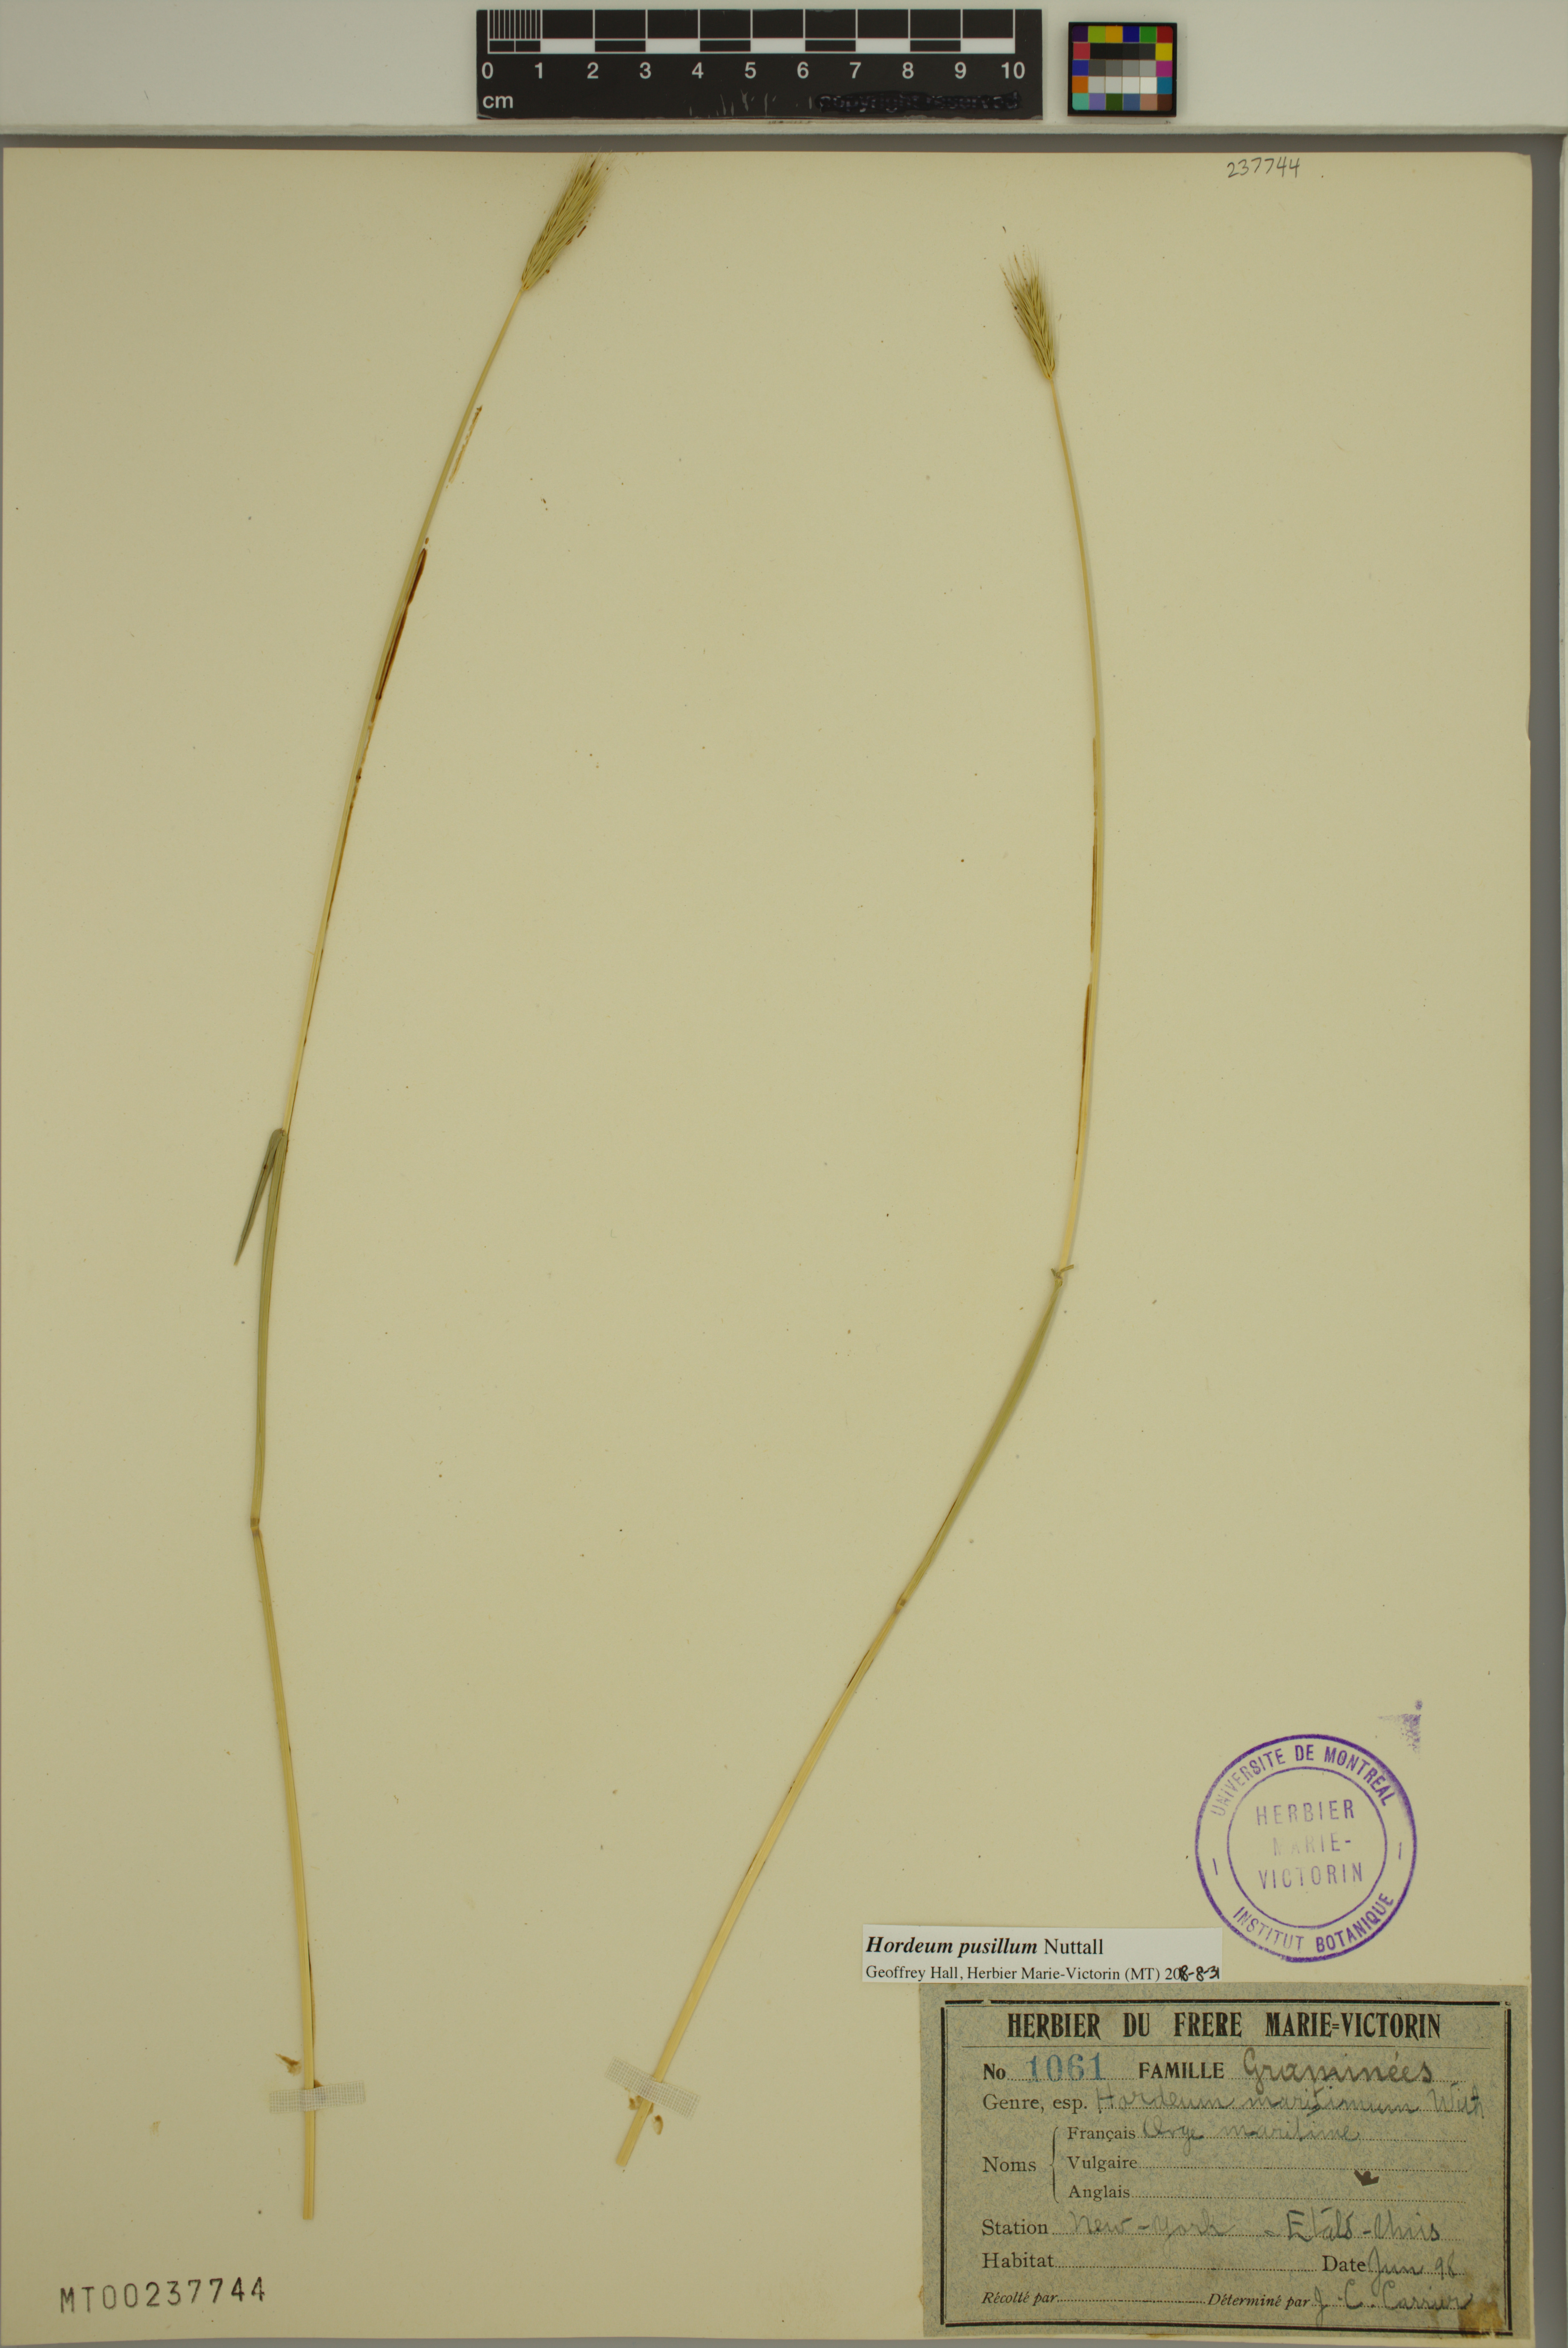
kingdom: Plantae
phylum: Tracheophyta
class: Liliopsida
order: Poales
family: Poaceae
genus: Hordeum
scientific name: Hordeum pusillum
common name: Little barley
